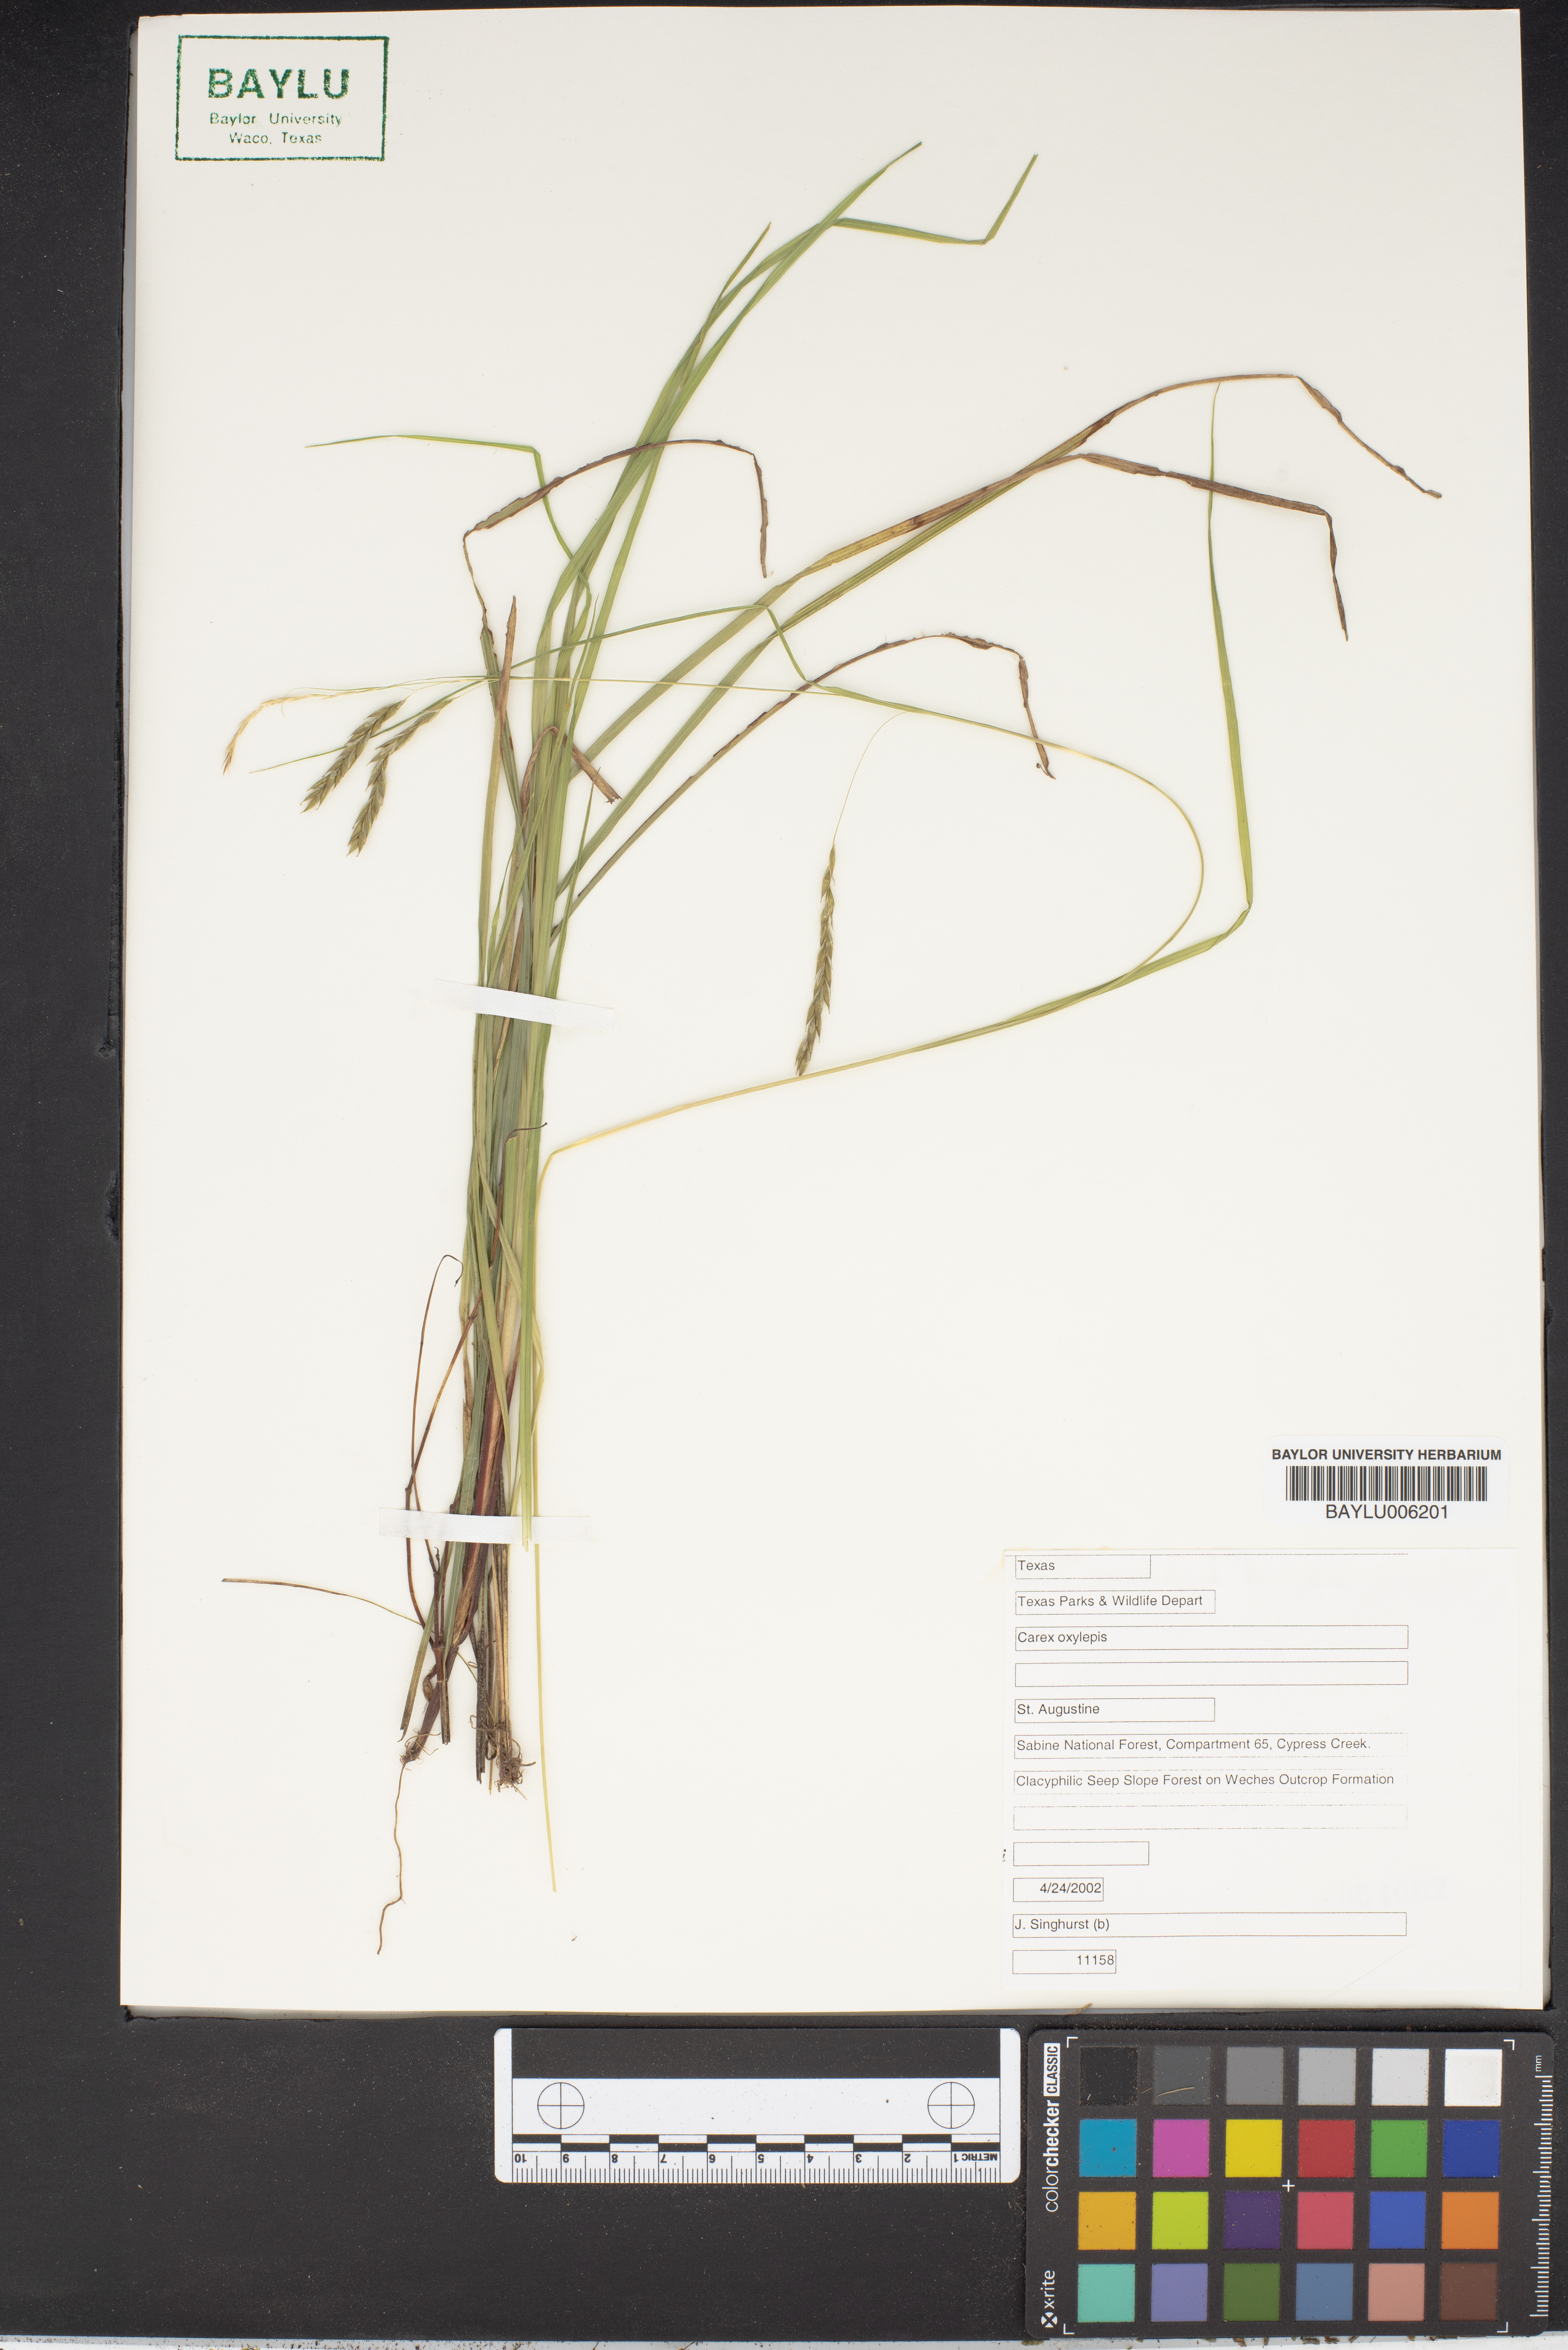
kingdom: Plantae
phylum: Tracheophyta
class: Liliopsida
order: Poales
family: Cyperaceae
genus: Carex
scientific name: Carex oxylepis
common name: Sharpscale sedge
